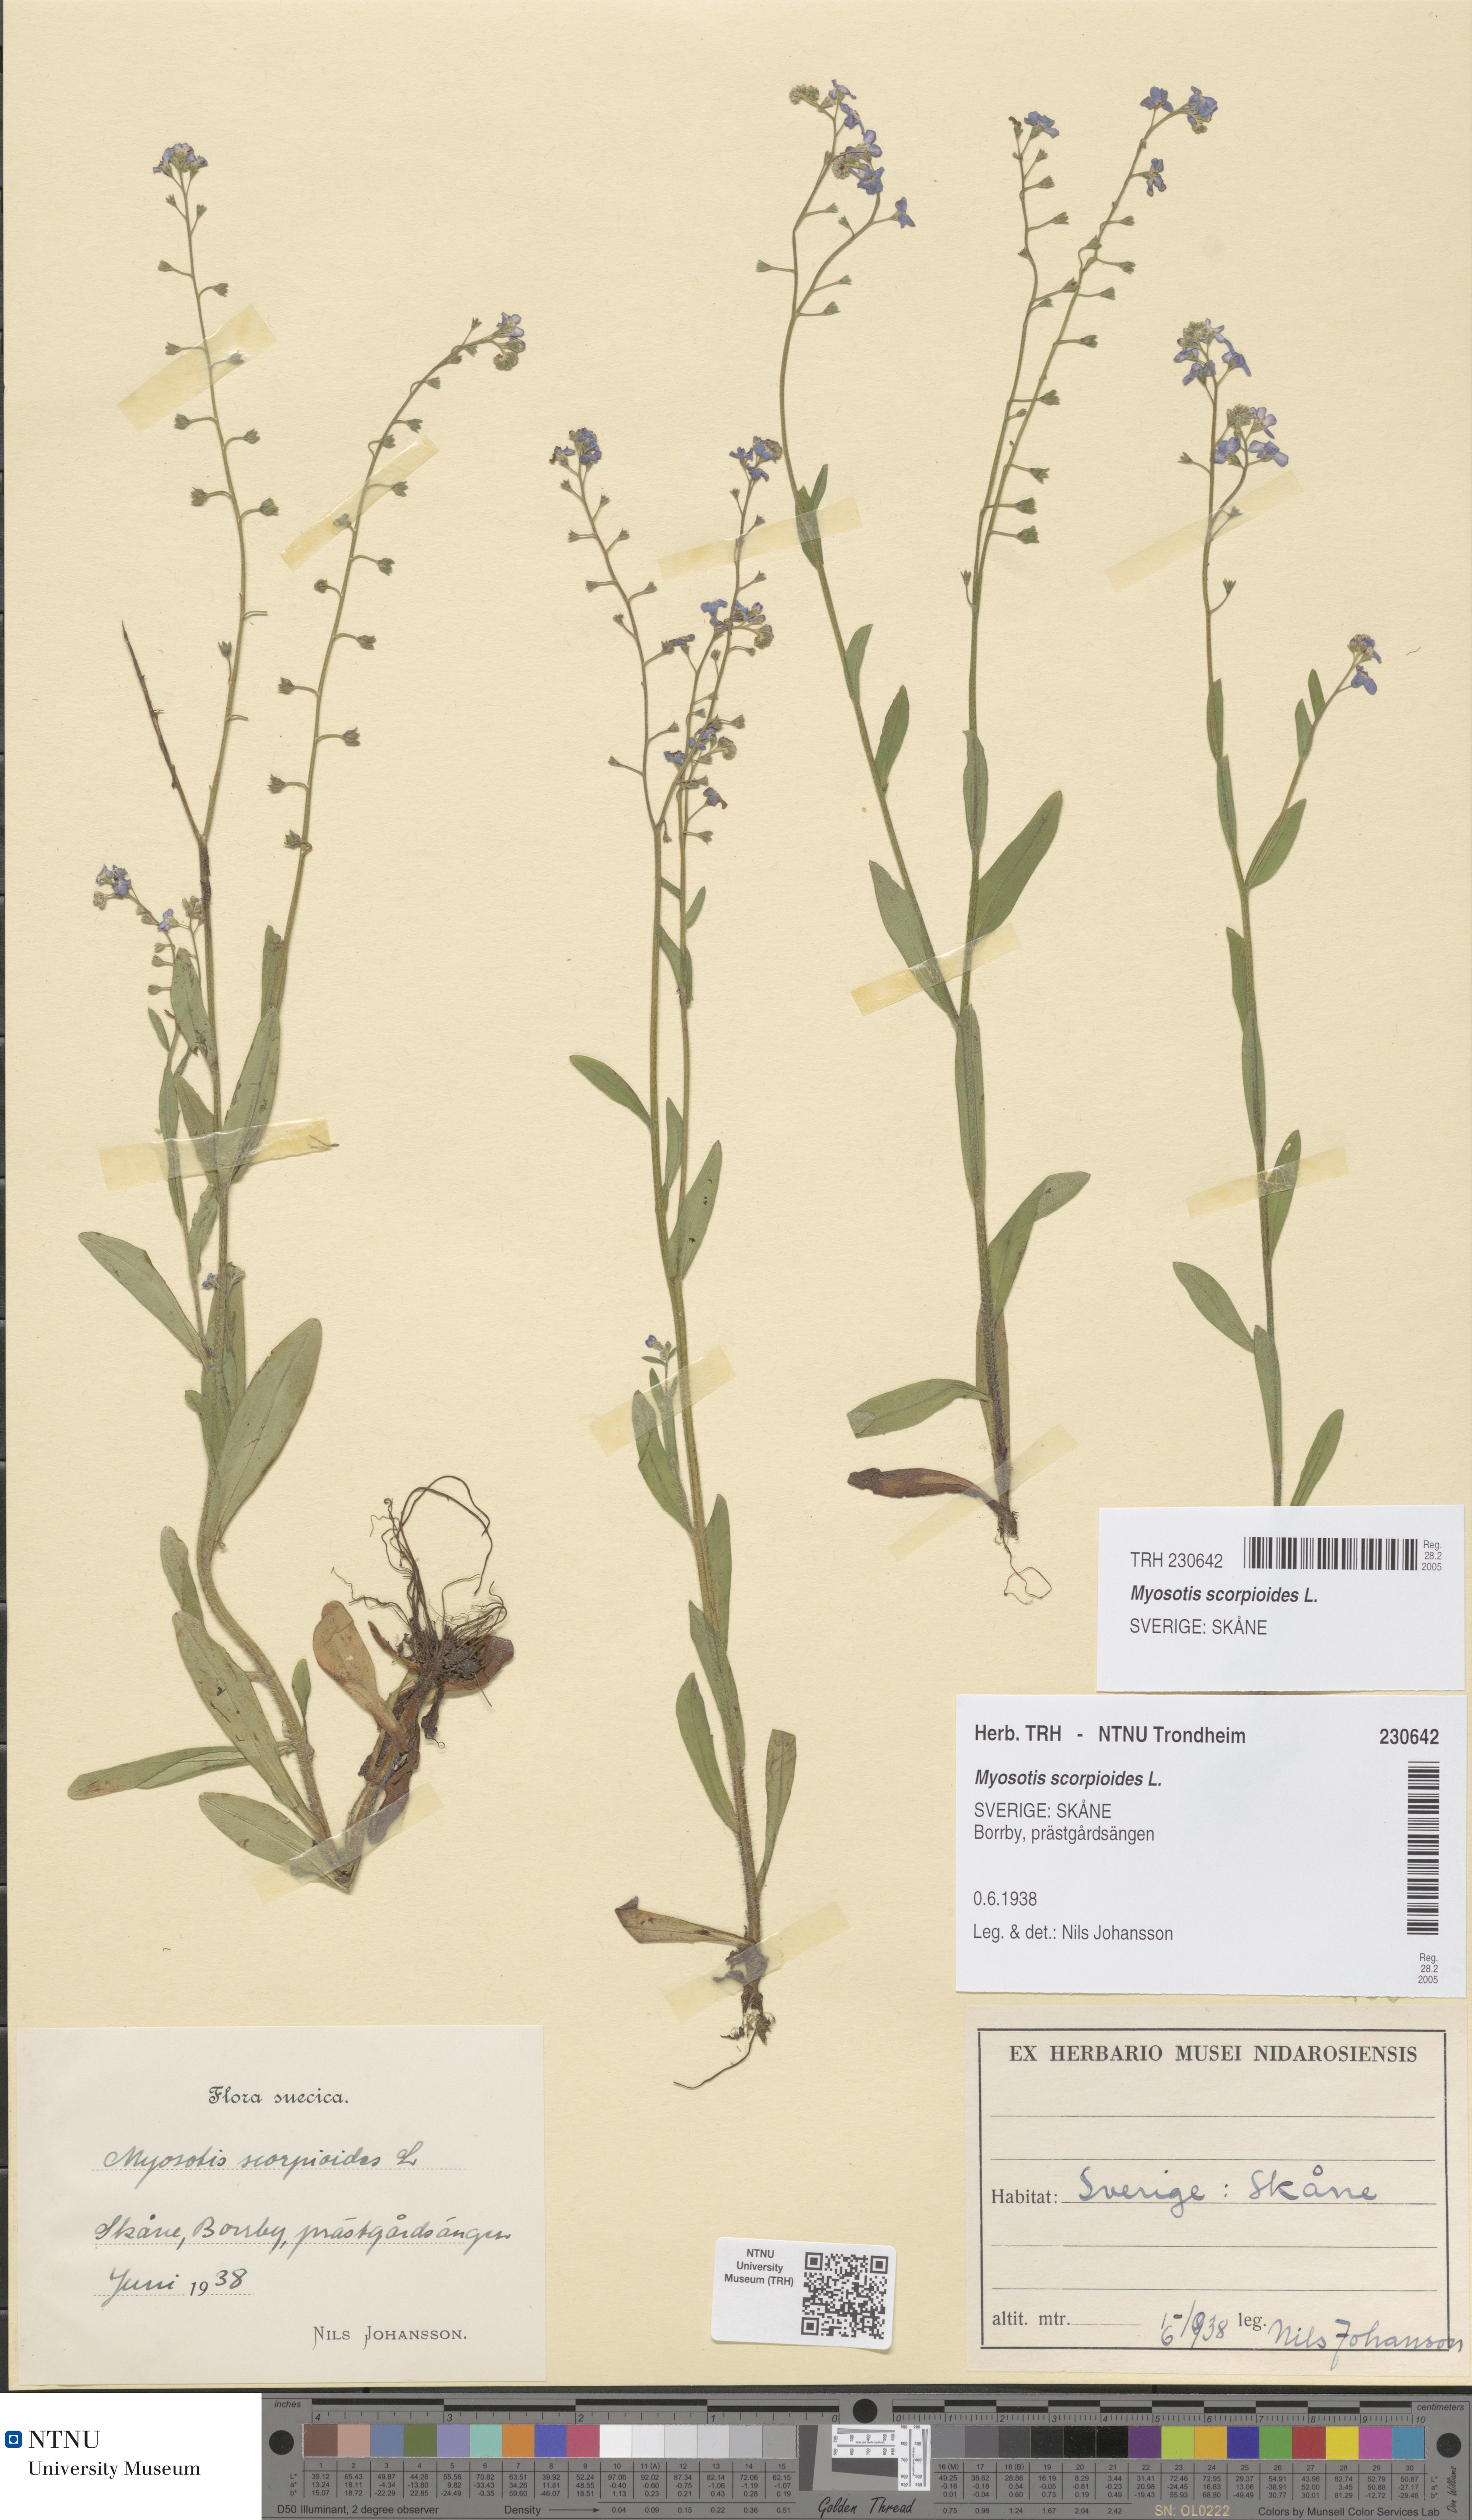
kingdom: Plantae
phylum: Tracheophyta
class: Magnoliopsida
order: Boraginales
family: Boraginaceae
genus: Myosotis
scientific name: Myosotis scorpioides
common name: Water forget-me-not
